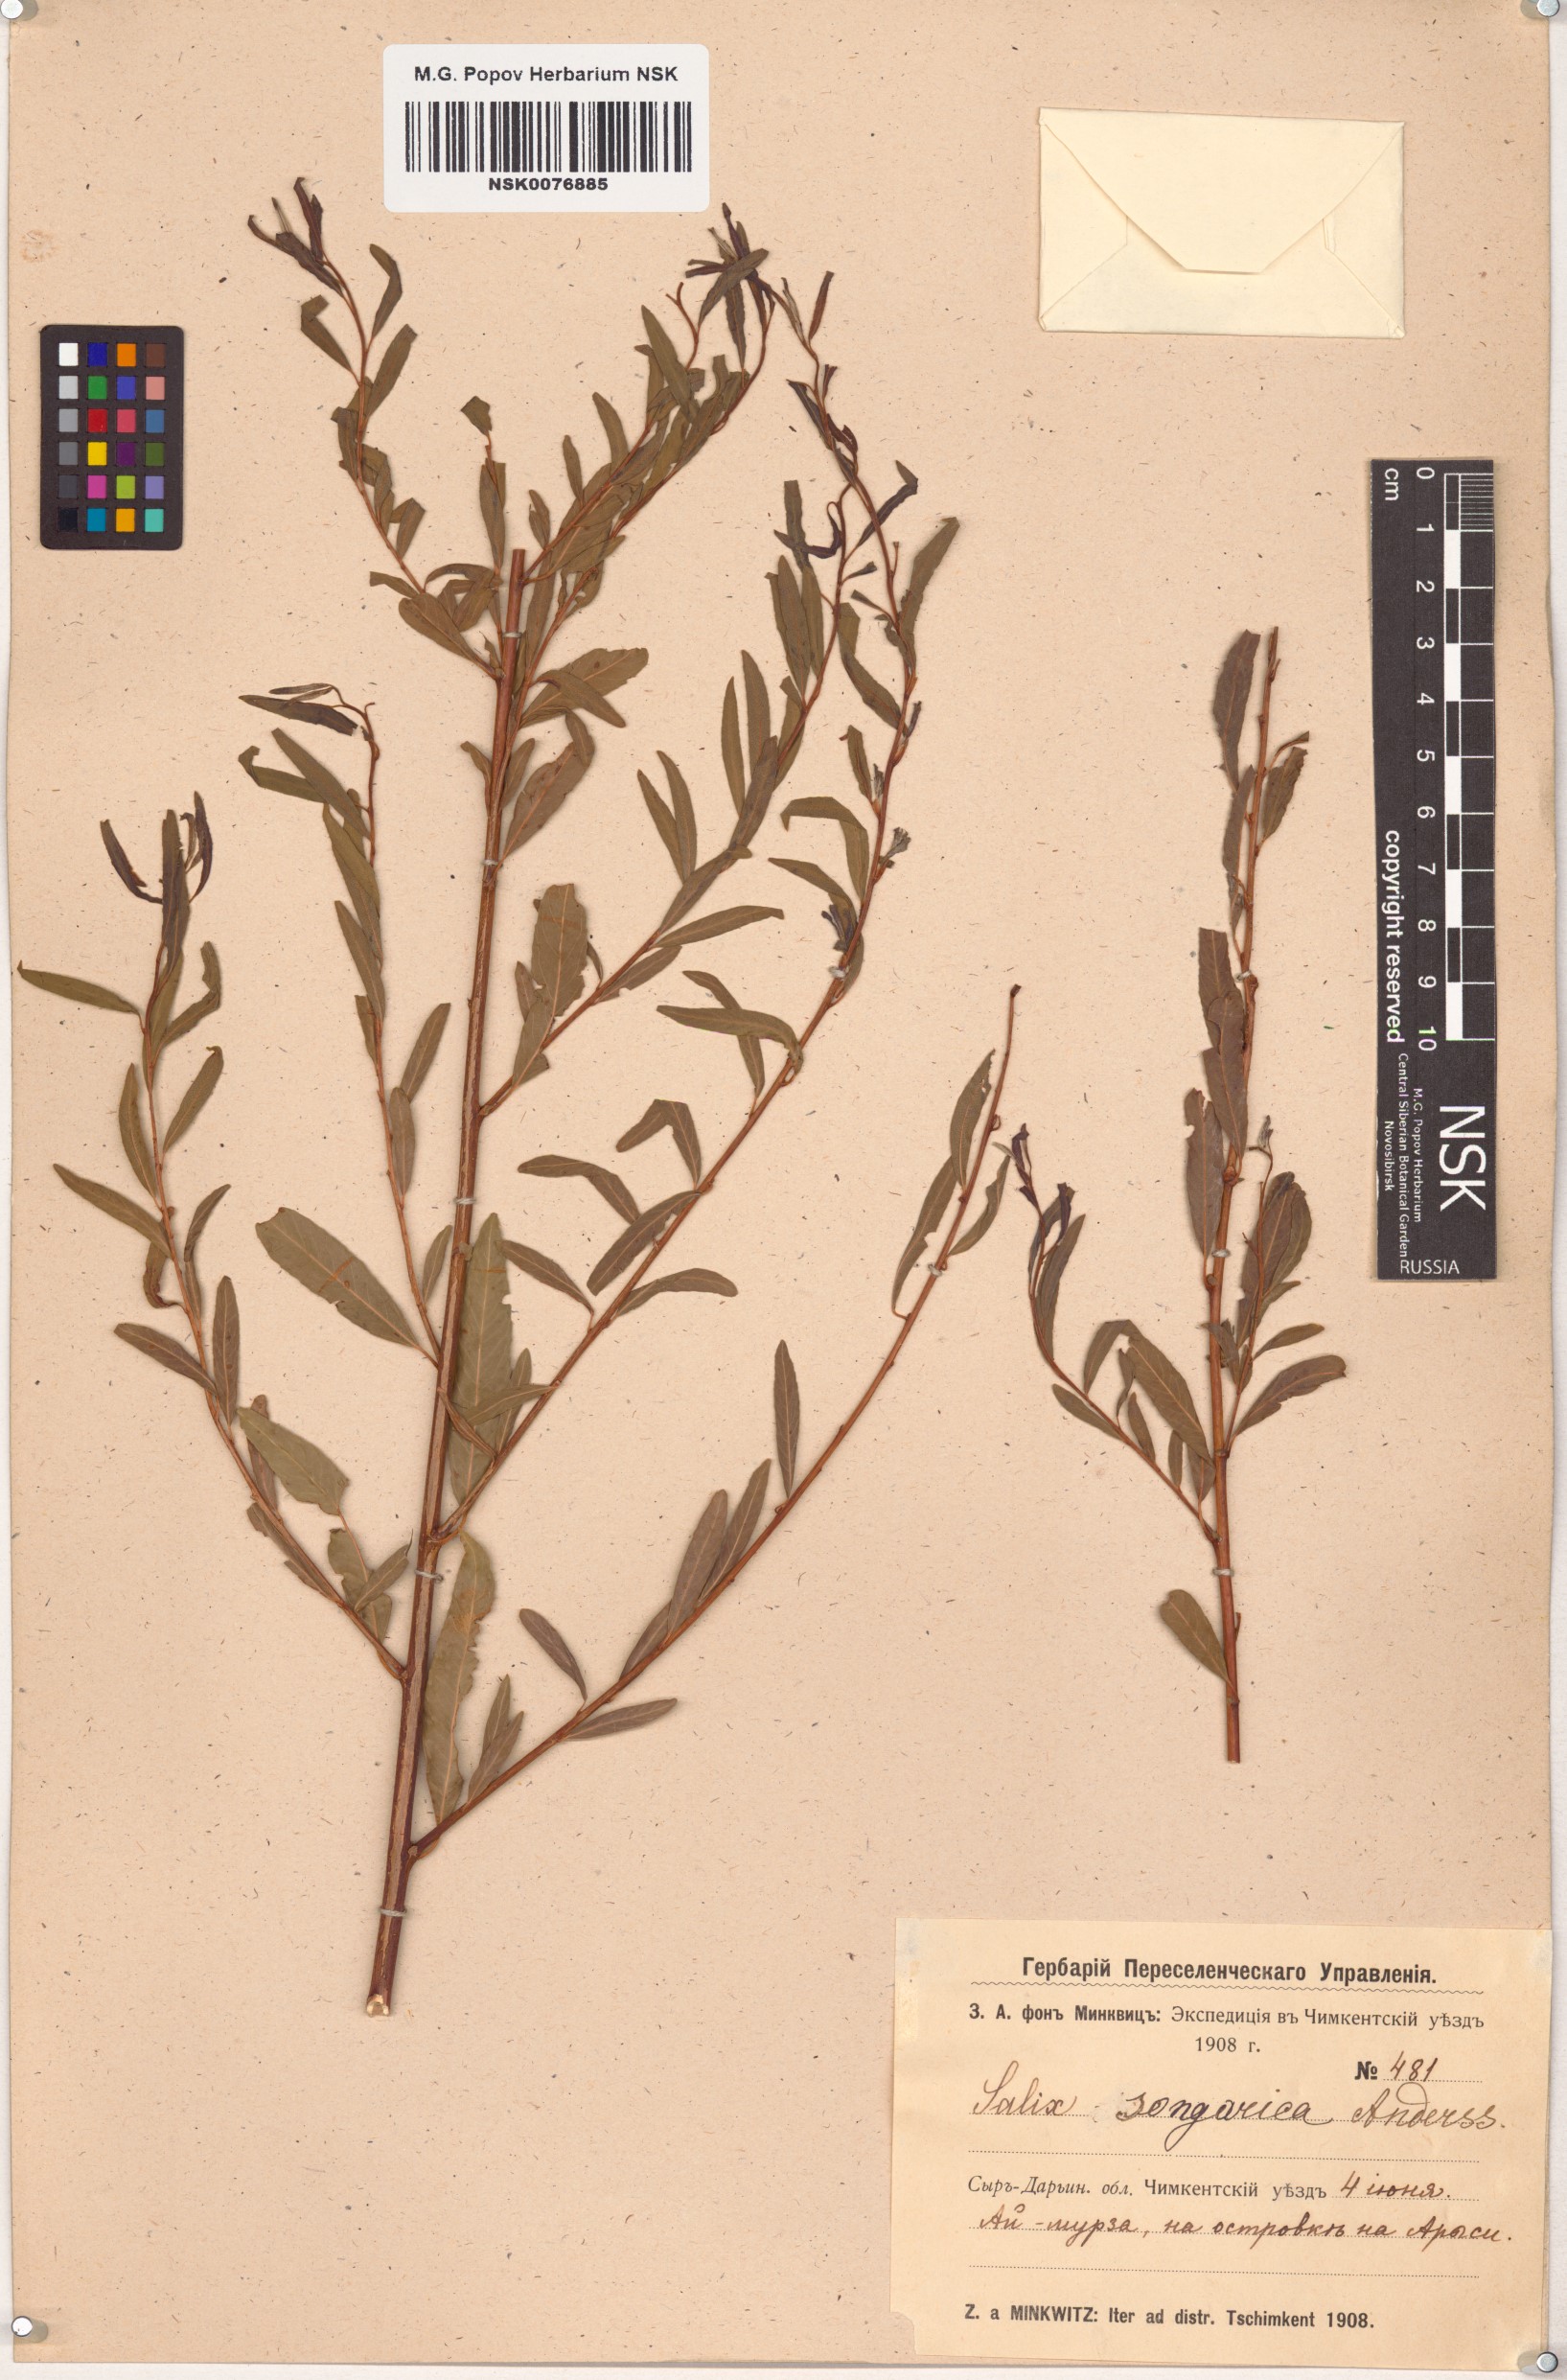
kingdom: Plantae
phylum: Tracheophyta
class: Magnoliopsida
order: Malpighiales
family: Salicaceae
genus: Salix
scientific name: Salix songarica
